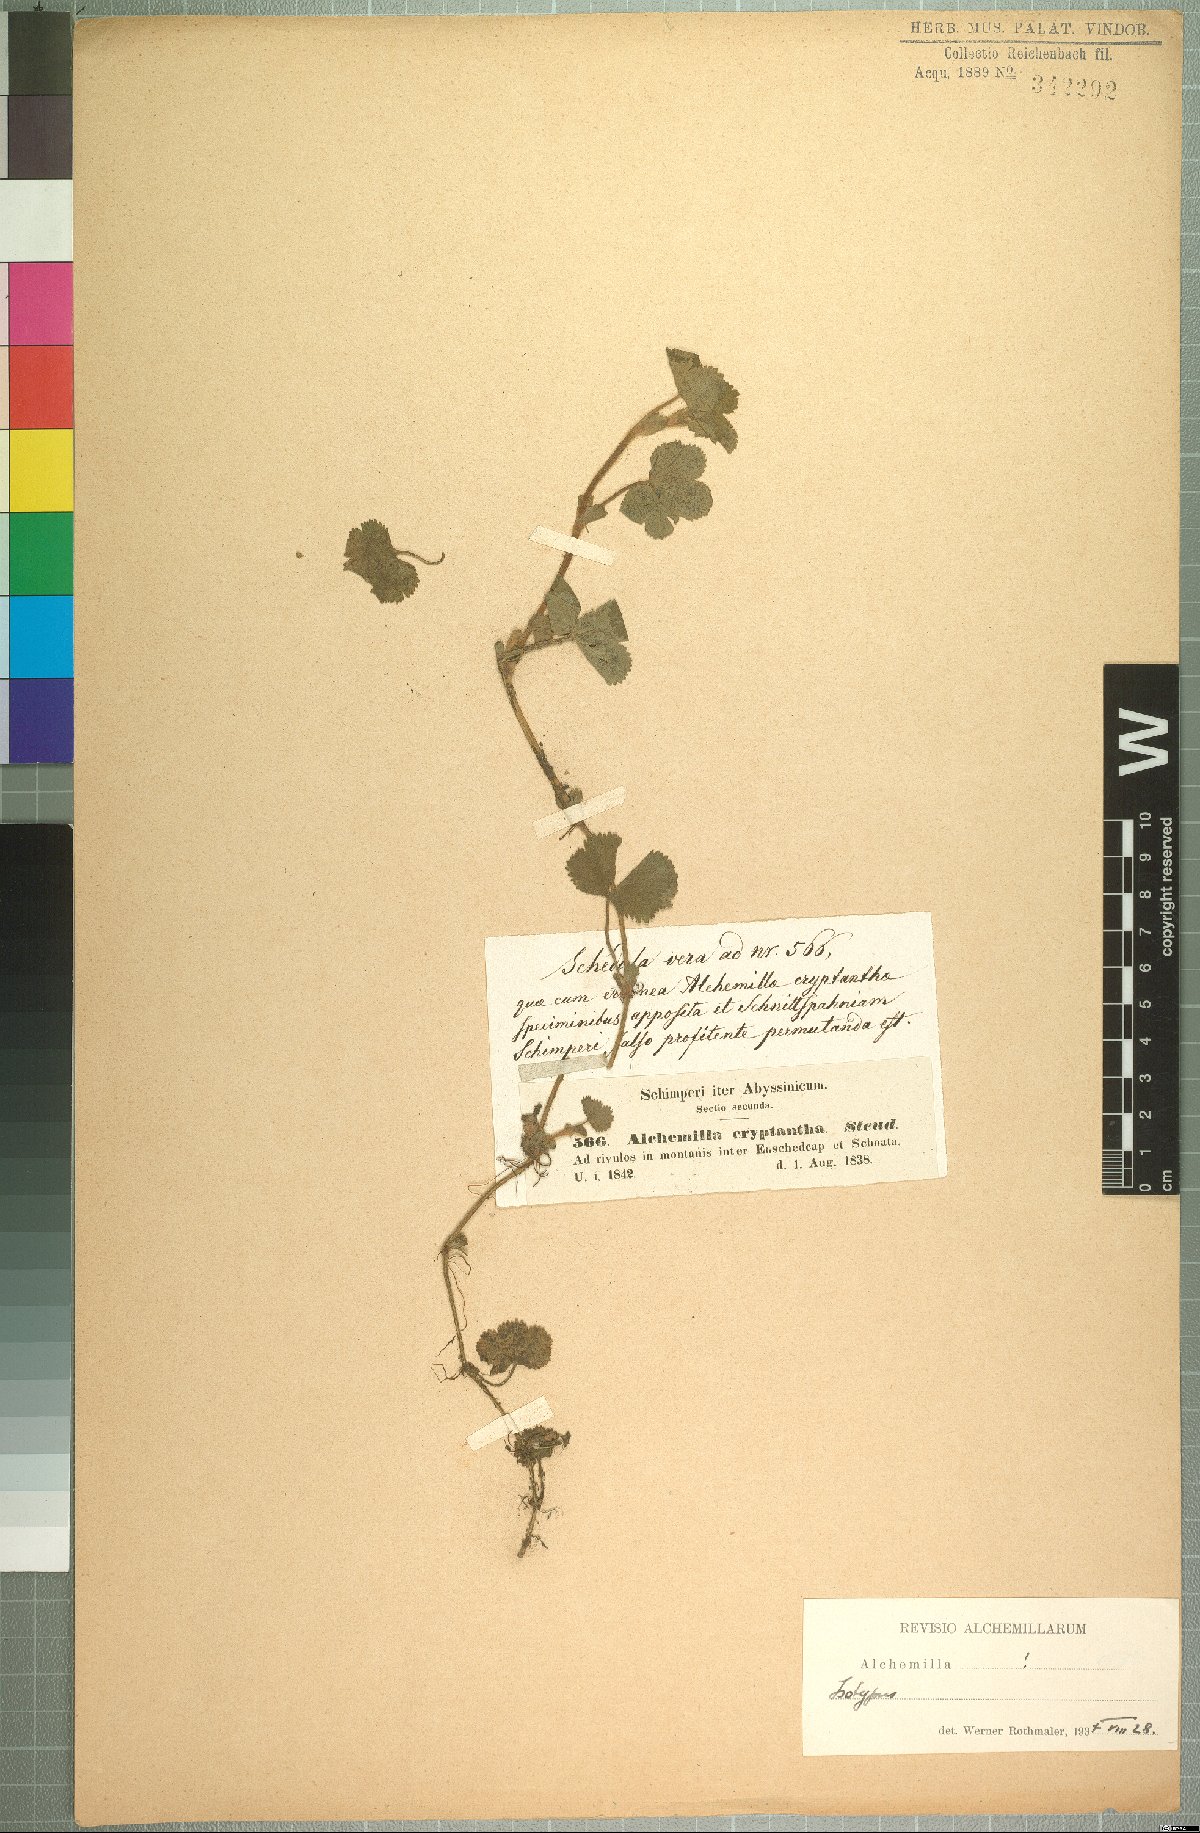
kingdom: Plantae
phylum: Tracheophyta
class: Magnoliopsida
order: Rosales
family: Rosaceae
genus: Alchemilla
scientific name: Alchemilla cryptantha
